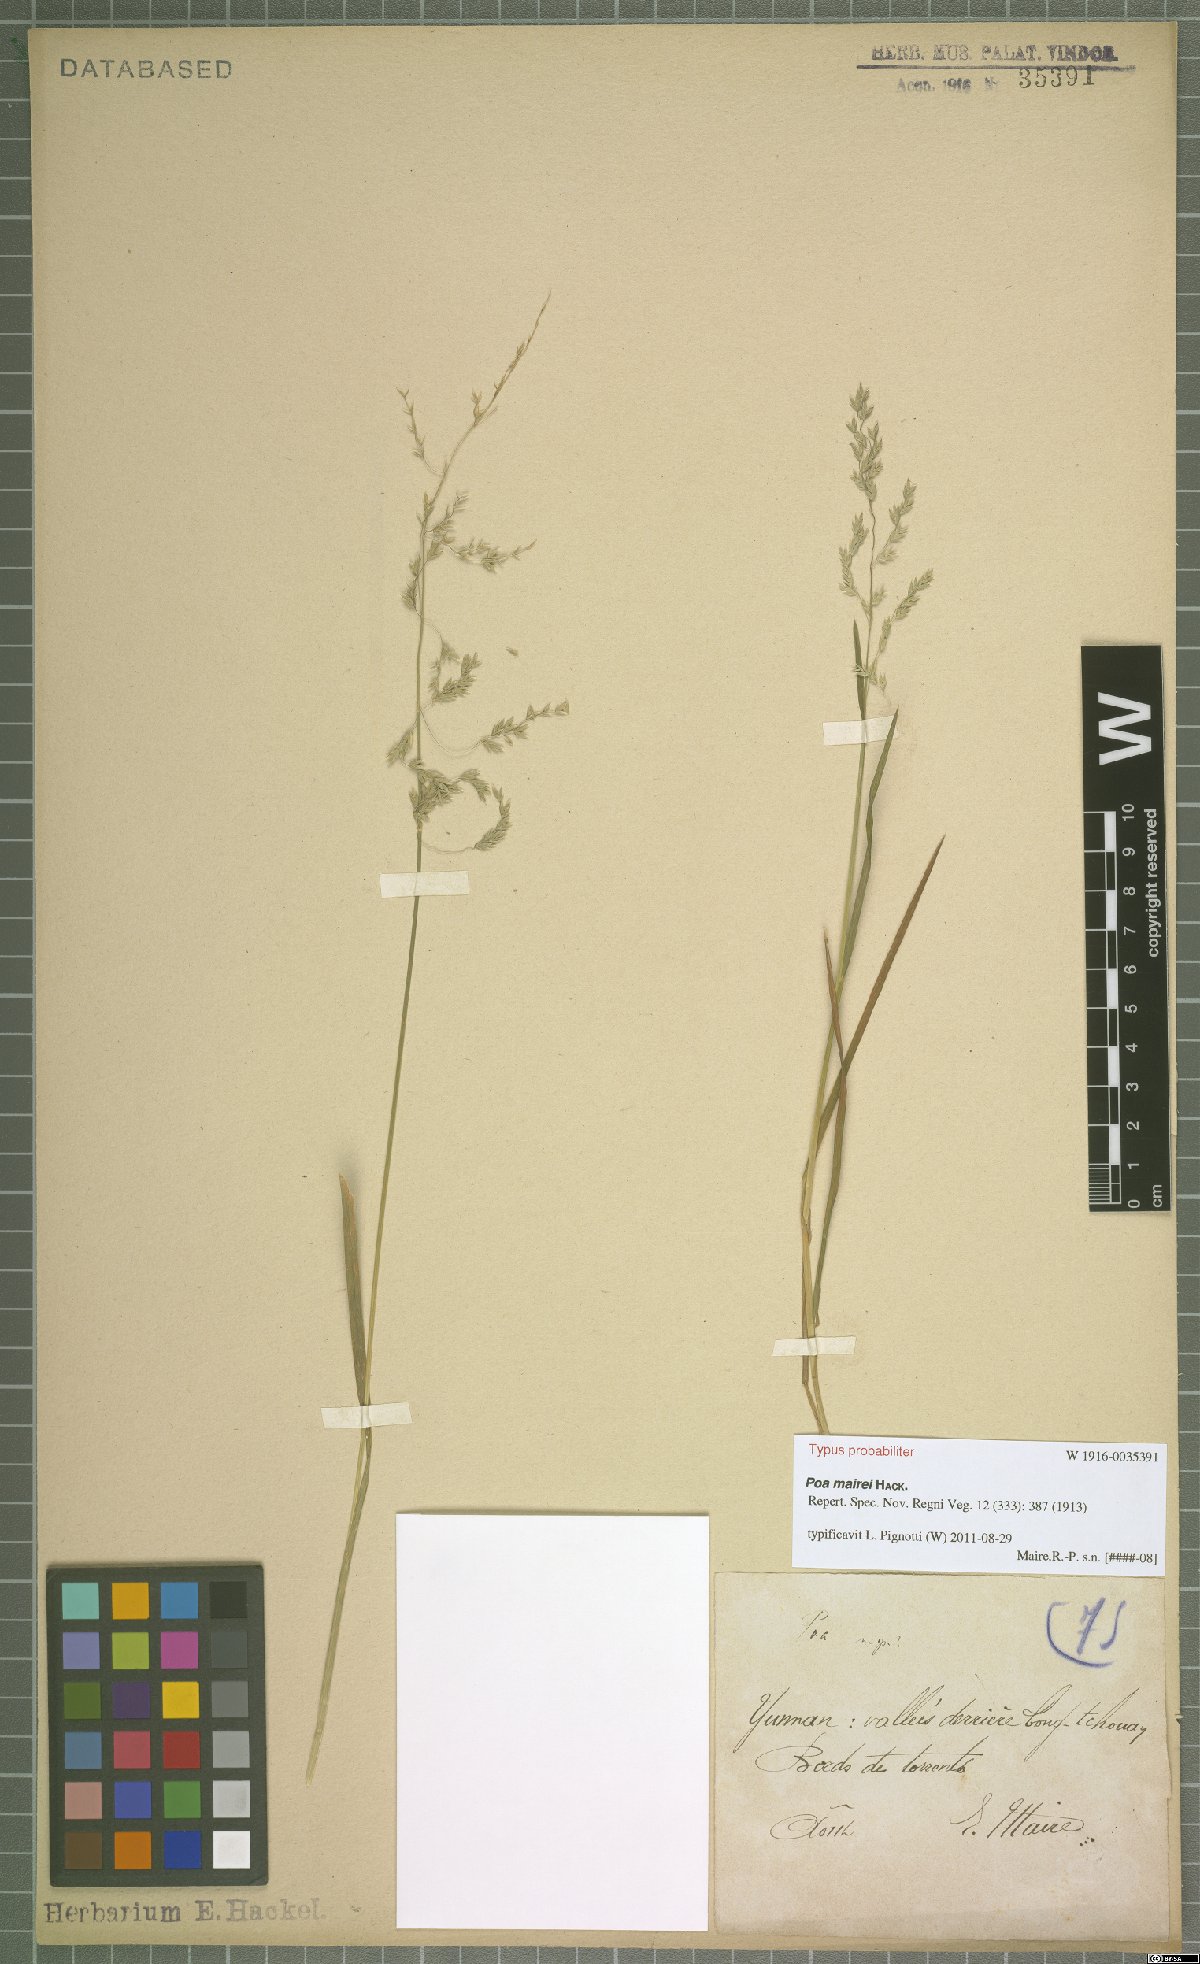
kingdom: Plantae
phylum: Tracheophyta
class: Liliopsida
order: Poales
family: Poaceae
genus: Poa
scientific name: Poa mairei
